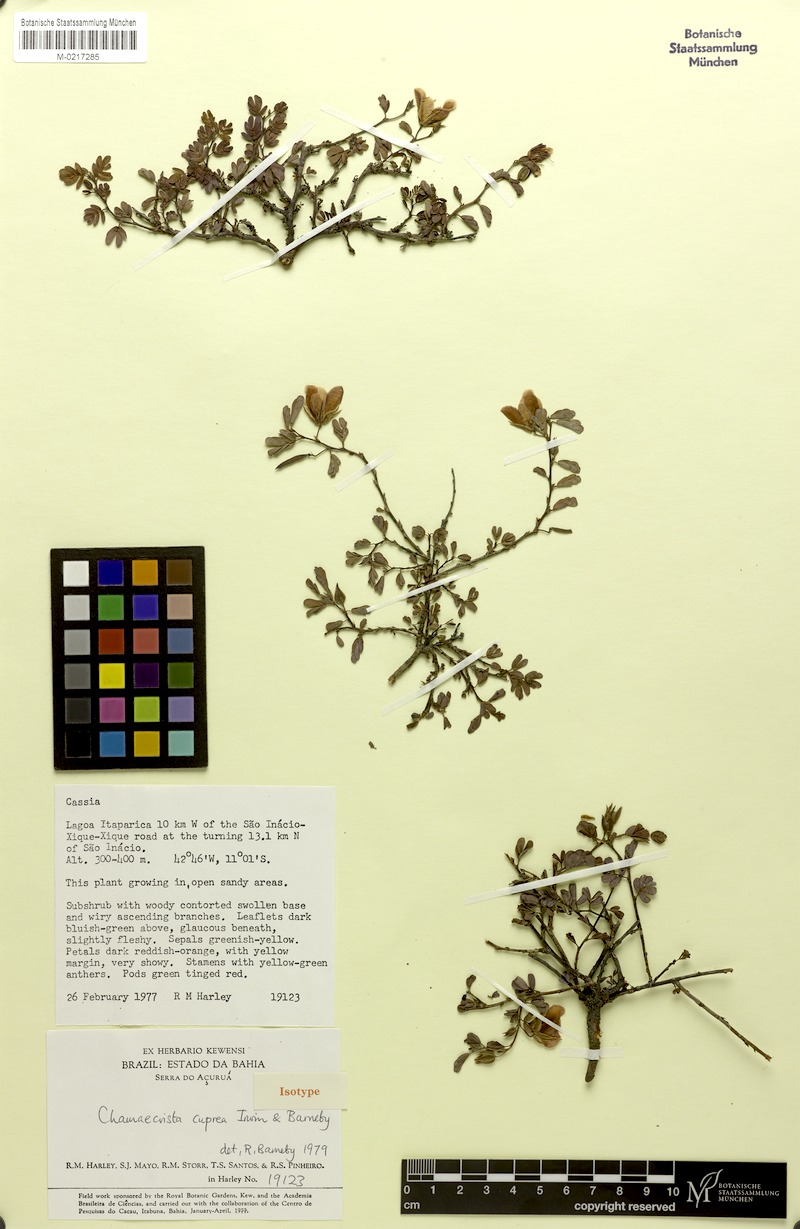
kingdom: Plantae
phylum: Tracheophyta
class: Magnoliopsida
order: Fabales
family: Fabaceae
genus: Chamaecrista
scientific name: Chamaecrista cuprea
